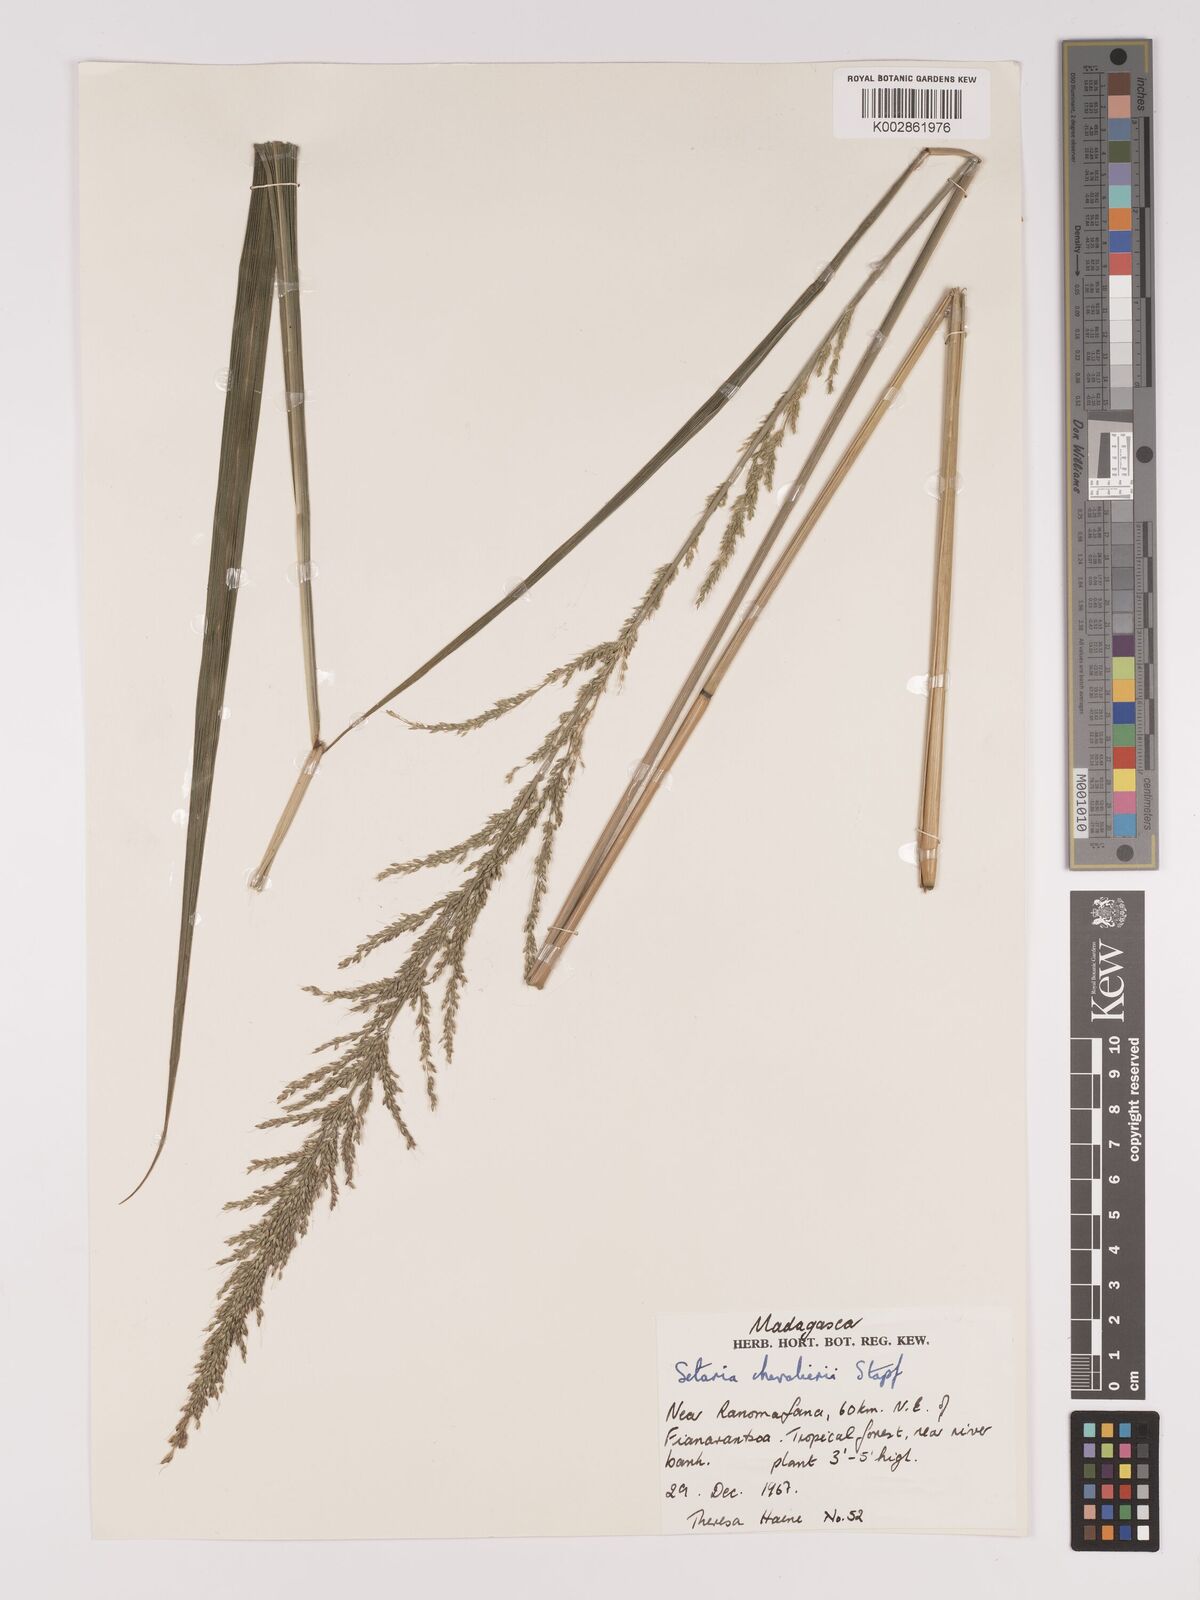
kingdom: Plantae
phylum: Tracheophyta
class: Liliopsida
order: Poales
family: Poaceae
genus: Setaria
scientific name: Setaria megaphylla
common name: Bigleaf bristlegrass
